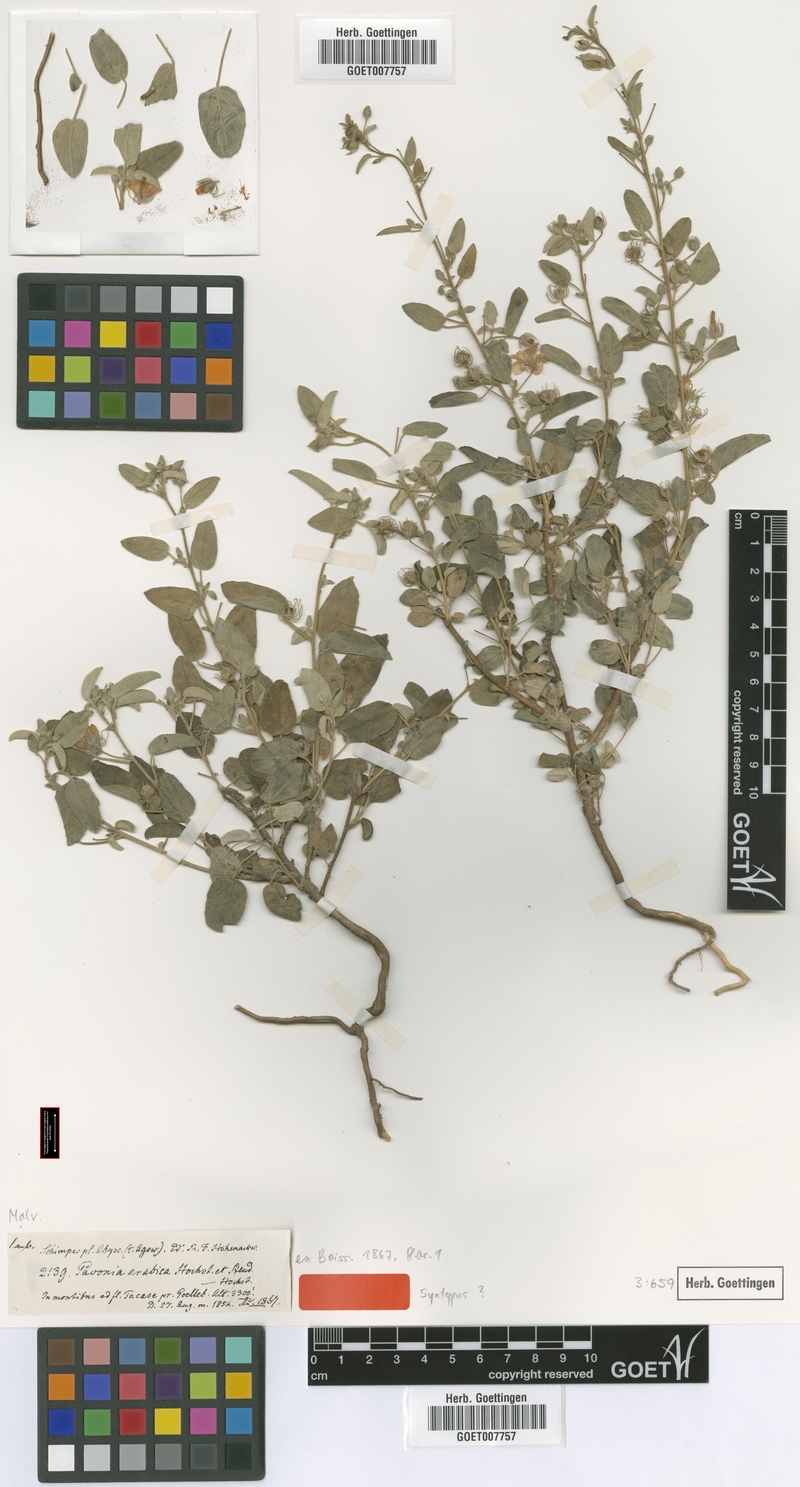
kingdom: Plantae
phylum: Tracheophyta
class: Magnoliopsida
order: Malvales
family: Malvaceae
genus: Pavonia
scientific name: Pavonia arabica
